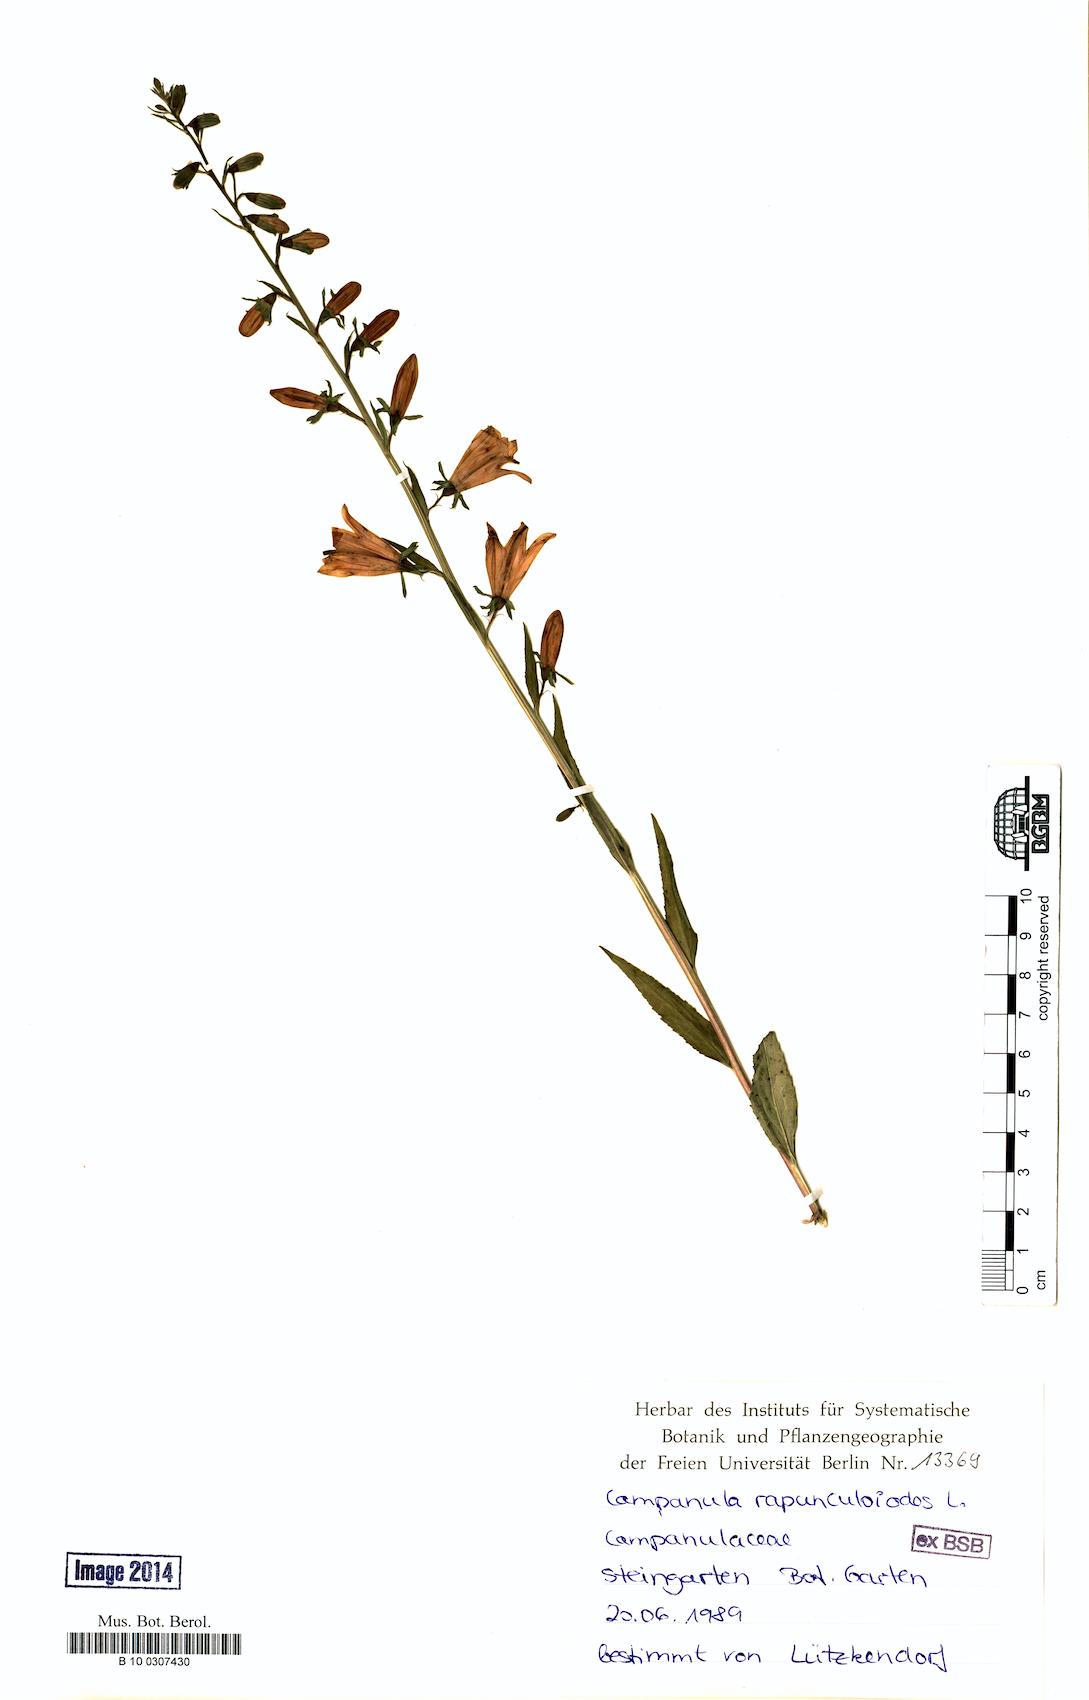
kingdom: Plantae
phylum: Tracheophyta
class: Magnoliopsida
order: Asterales
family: Campanulaceae
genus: Campanula
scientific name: Campanula rapunculoides
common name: Creeping bellflower
